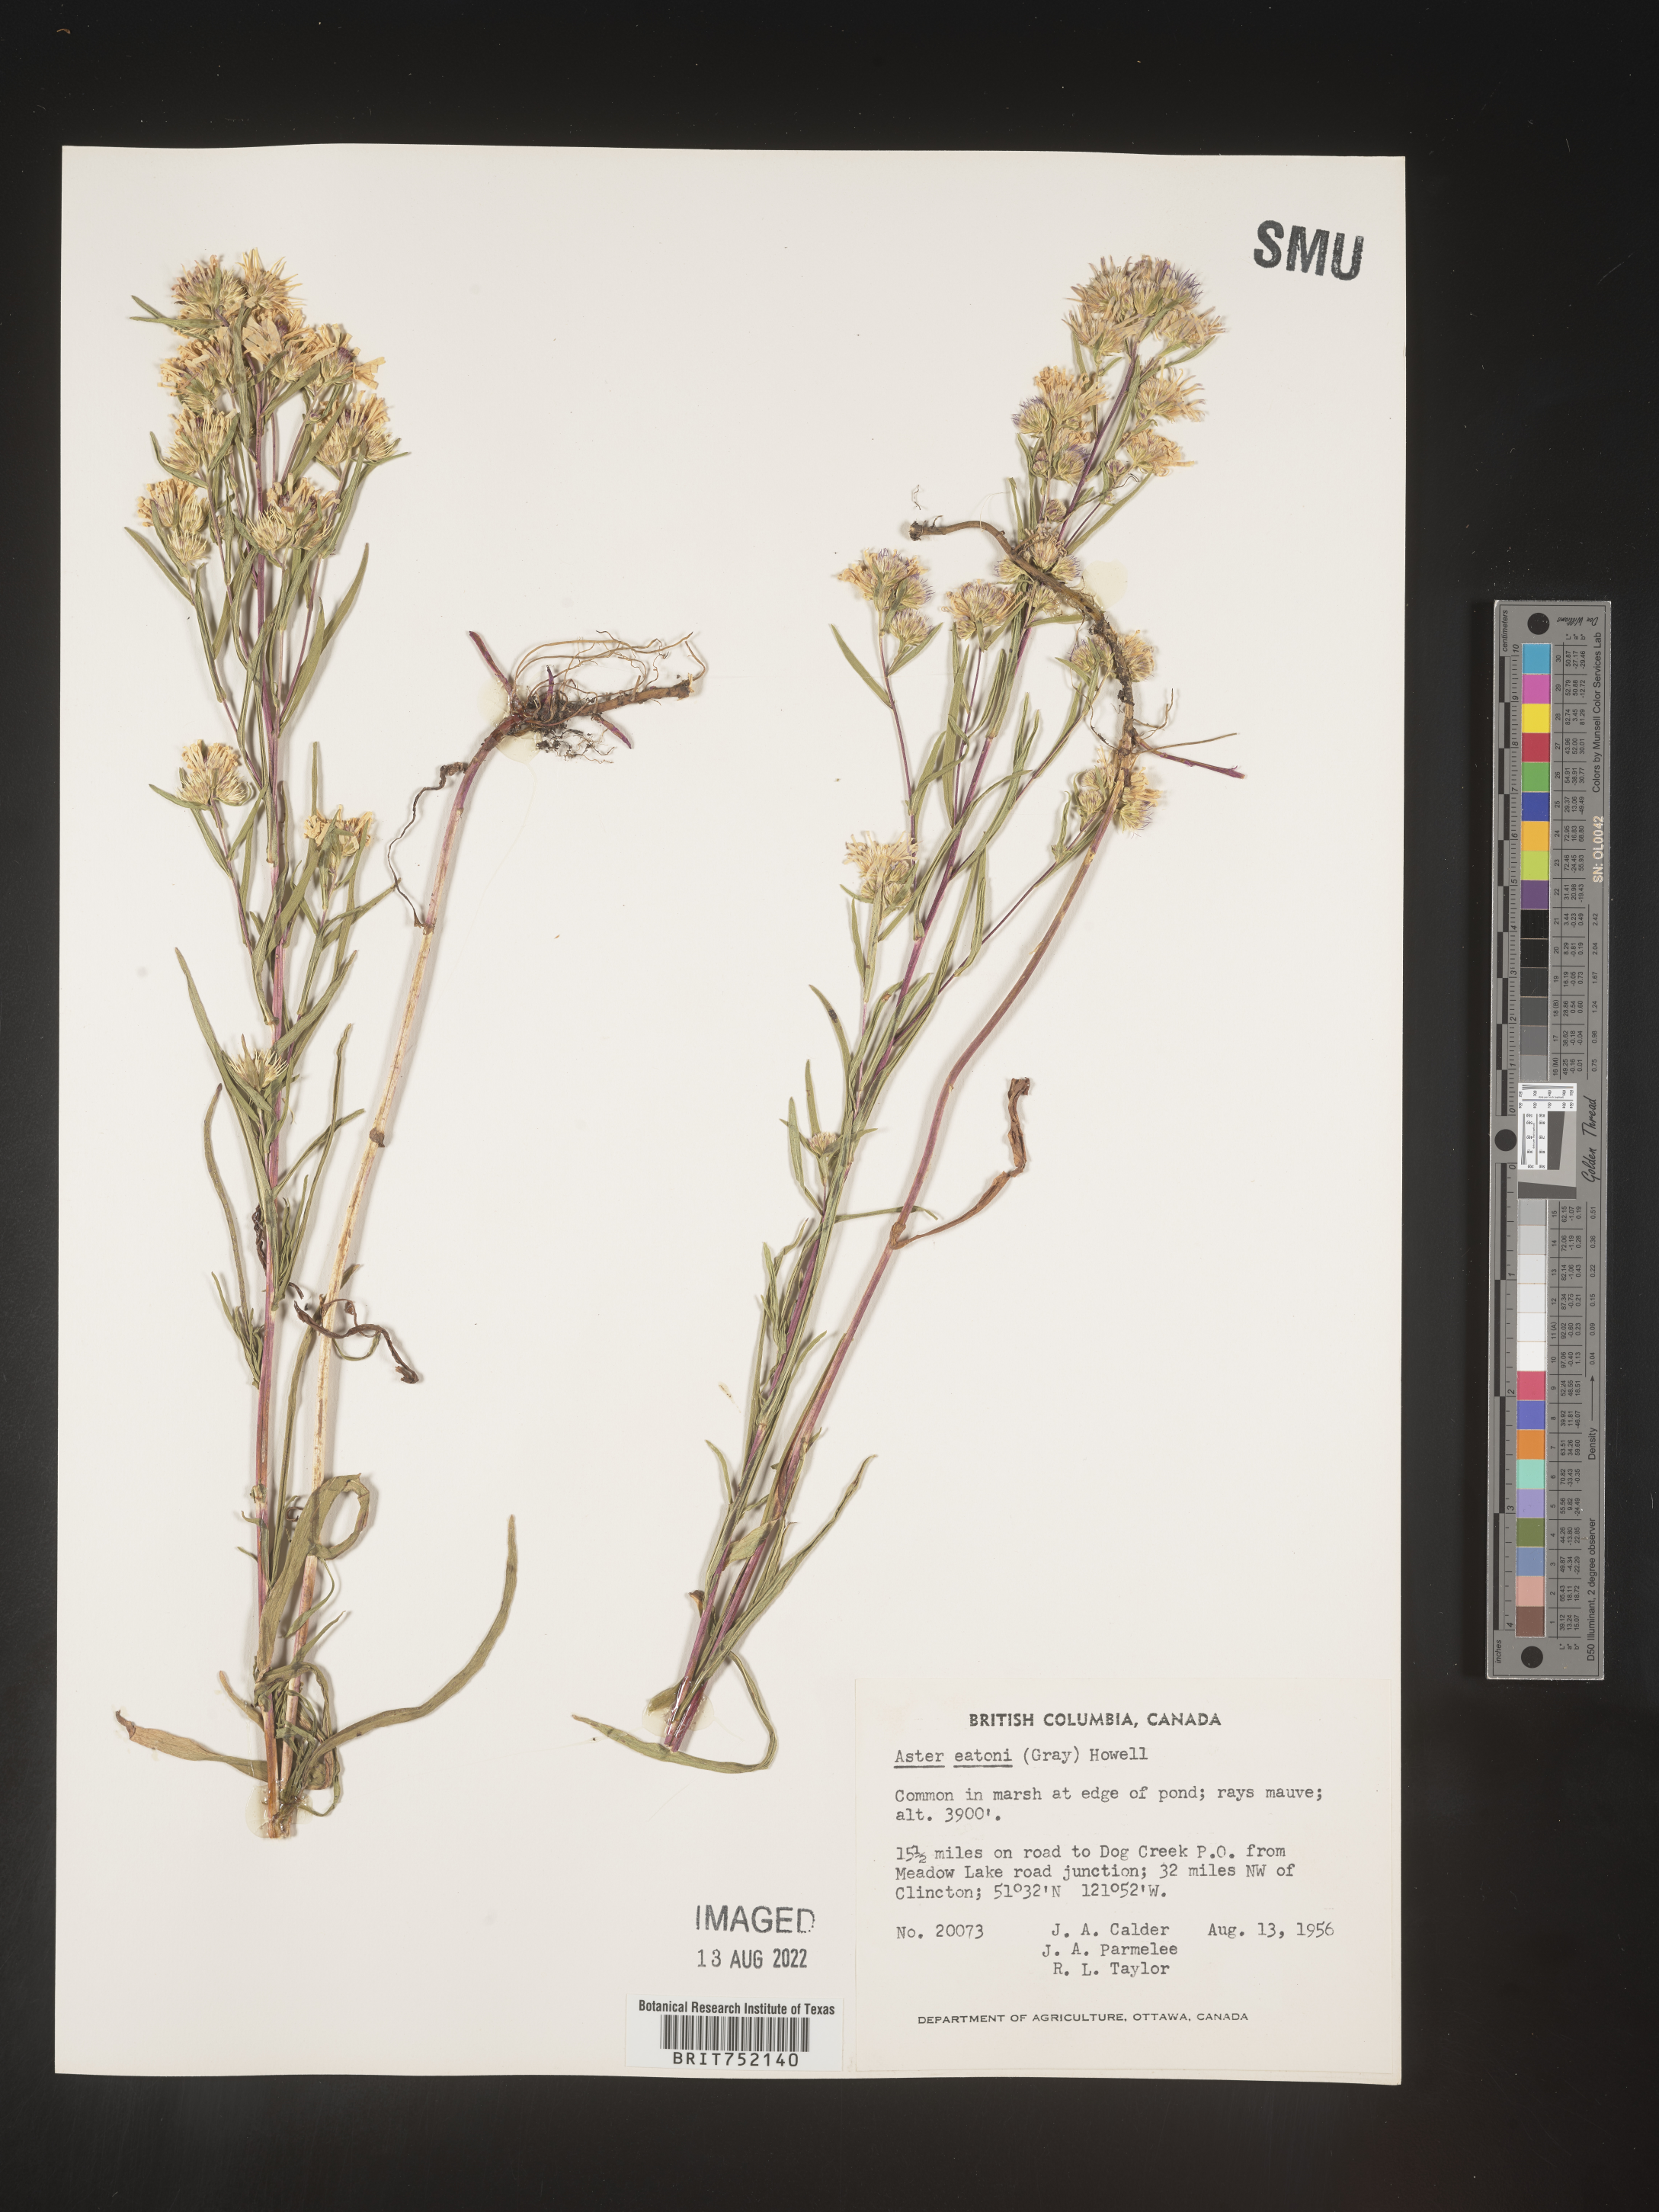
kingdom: Plantae
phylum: Tracheophyta
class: Magnoliopsida
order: Asterales
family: Asteraceae
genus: Symphyotrichum
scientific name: Symphyotrichum bracteolatum
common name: Eaton's aster
